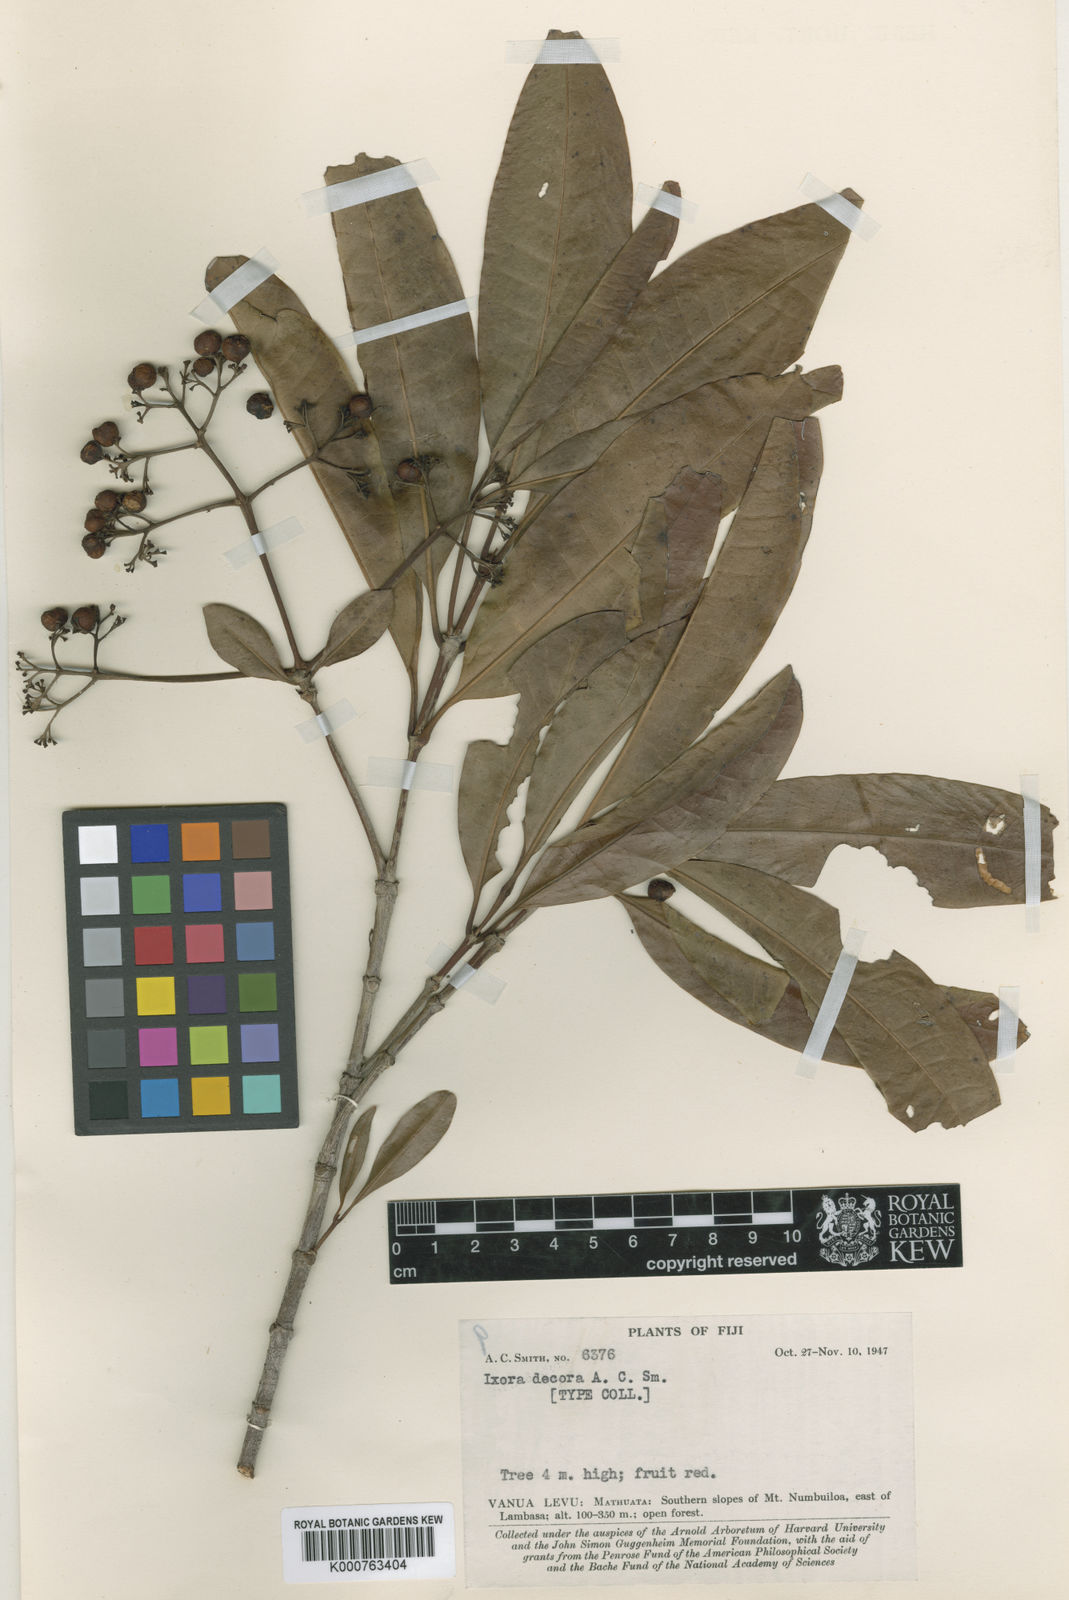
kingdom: Plantae
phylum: Tracheophyta
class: Magnoliopsida
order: Gentianales
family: Rubiaceae
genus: Ixora
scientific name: Ixora richardi-longii
